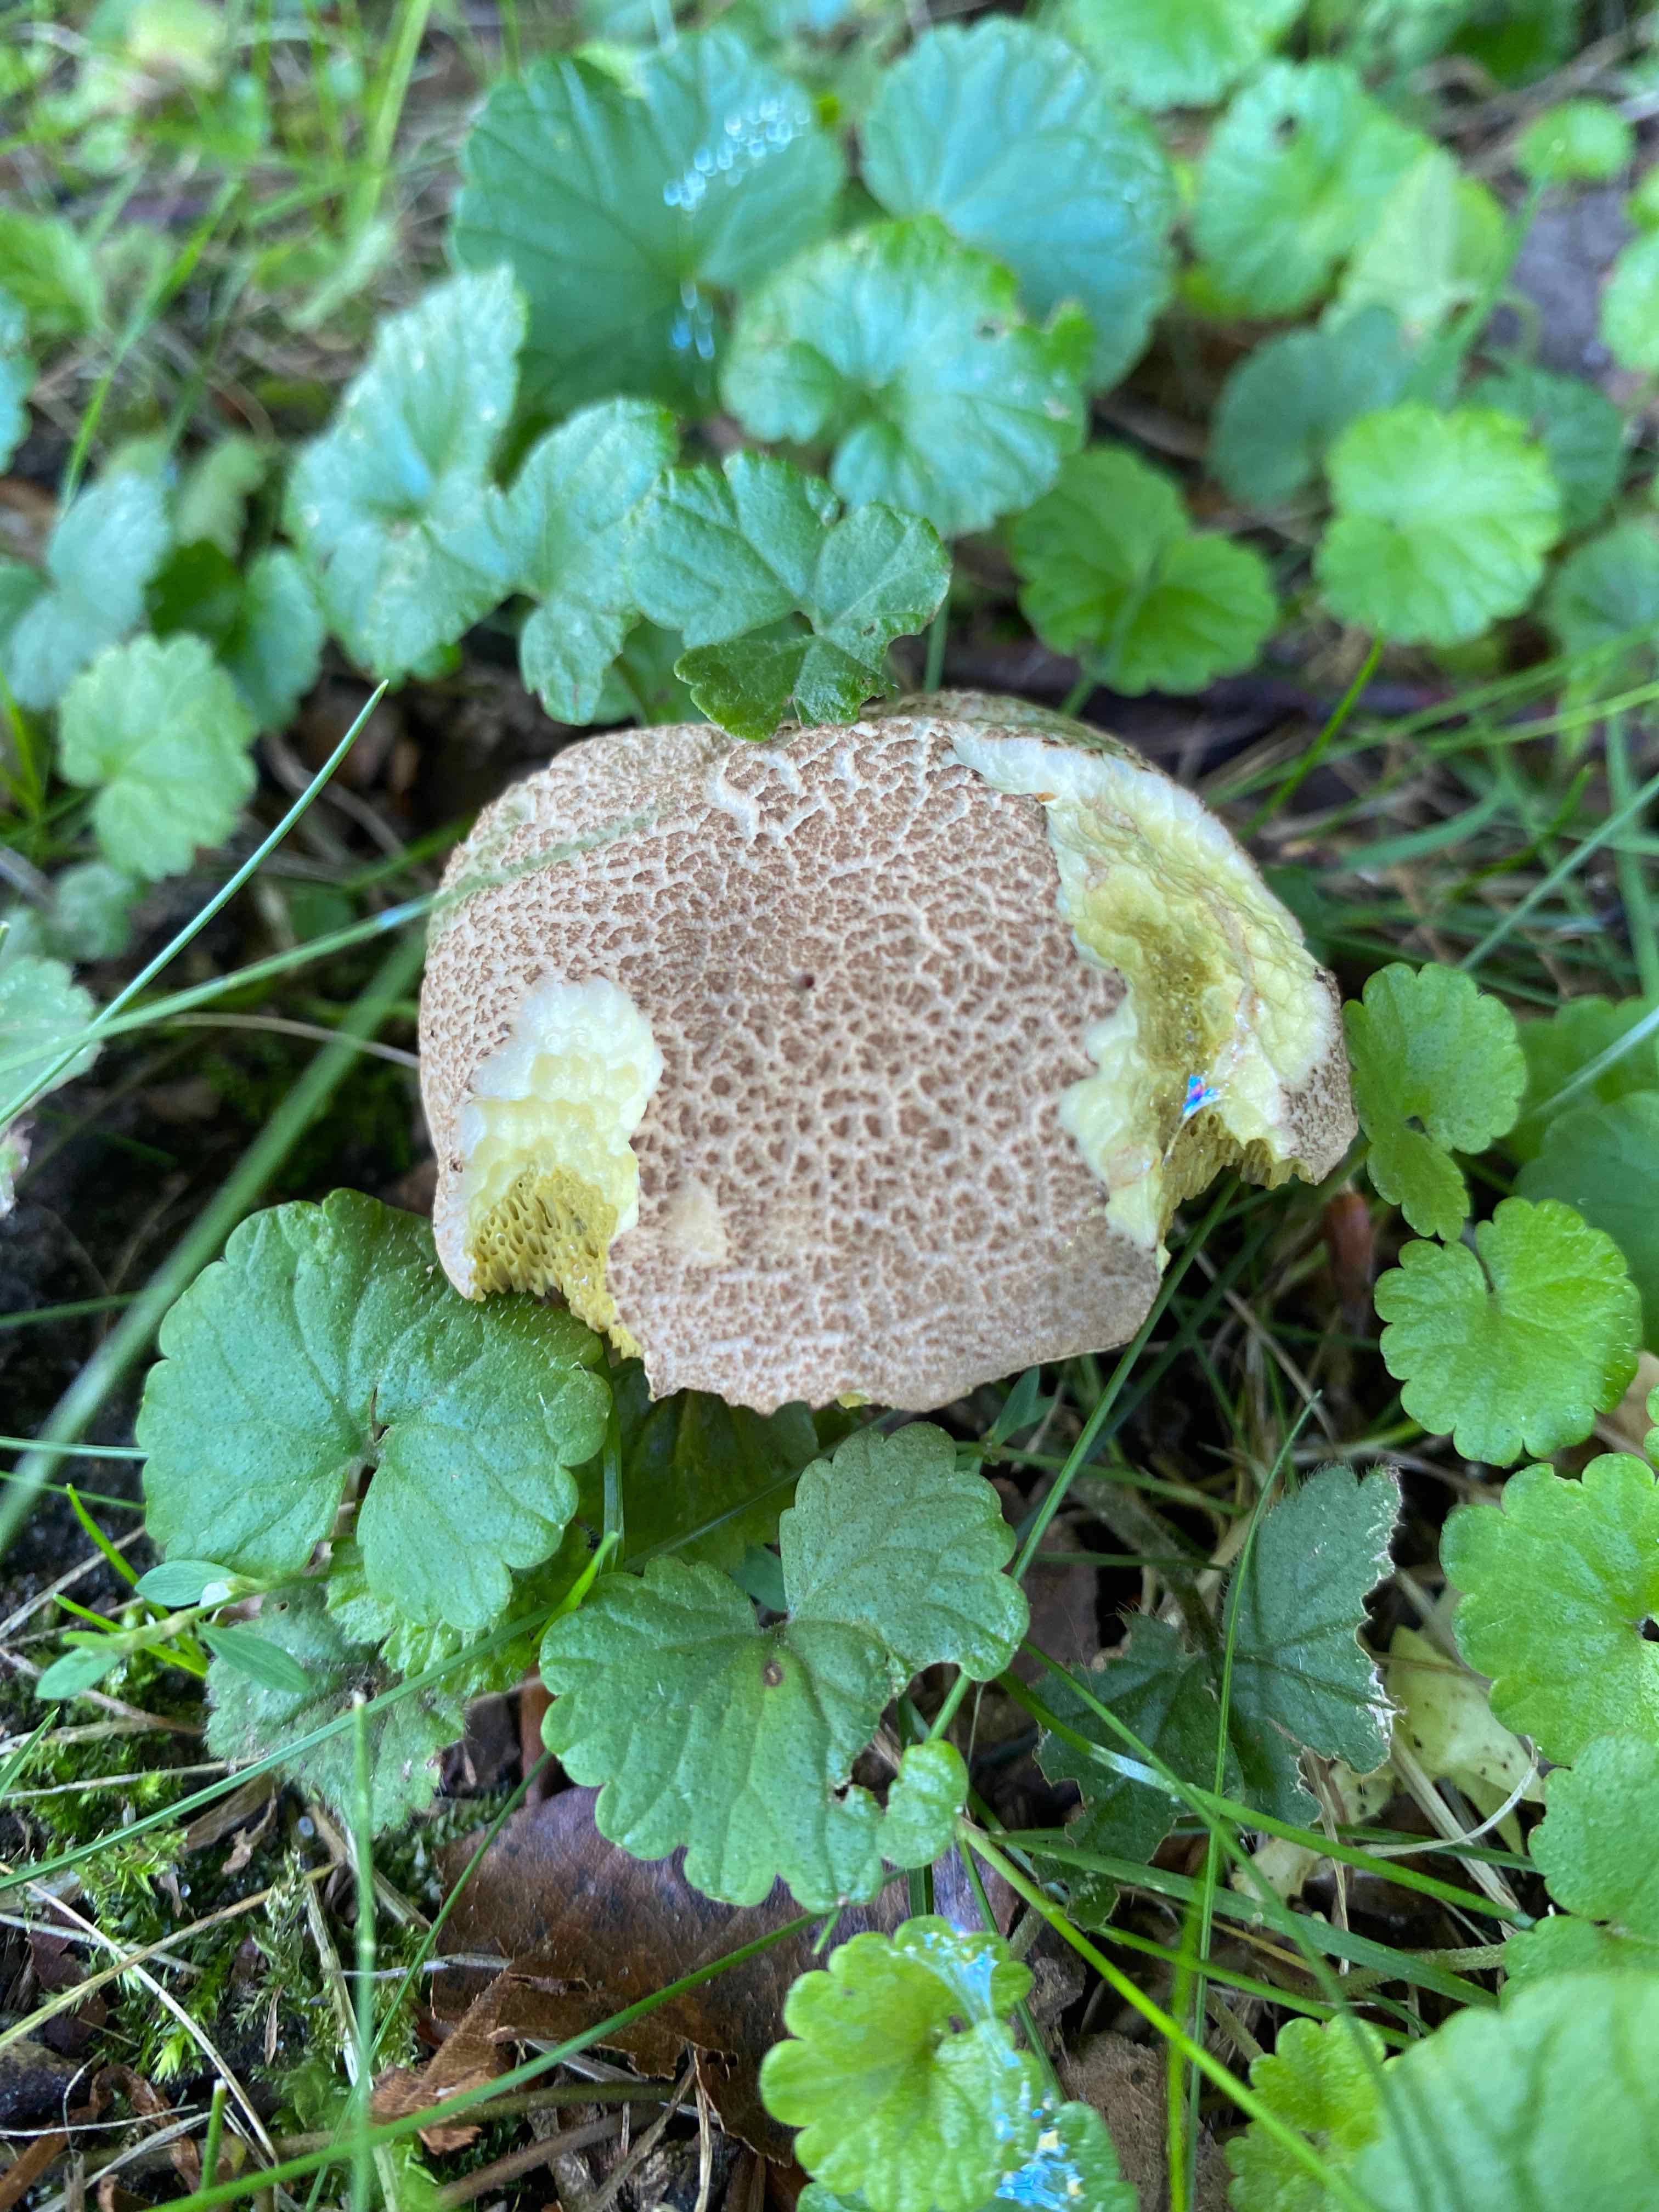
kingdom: Fungi
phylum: Basidiomycota
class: Agaricomycetes
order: Boletales
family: Boletaceae
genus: Xerocomellus
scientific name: Xerocomellus porosporus
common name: hvidsprukken rørhat
